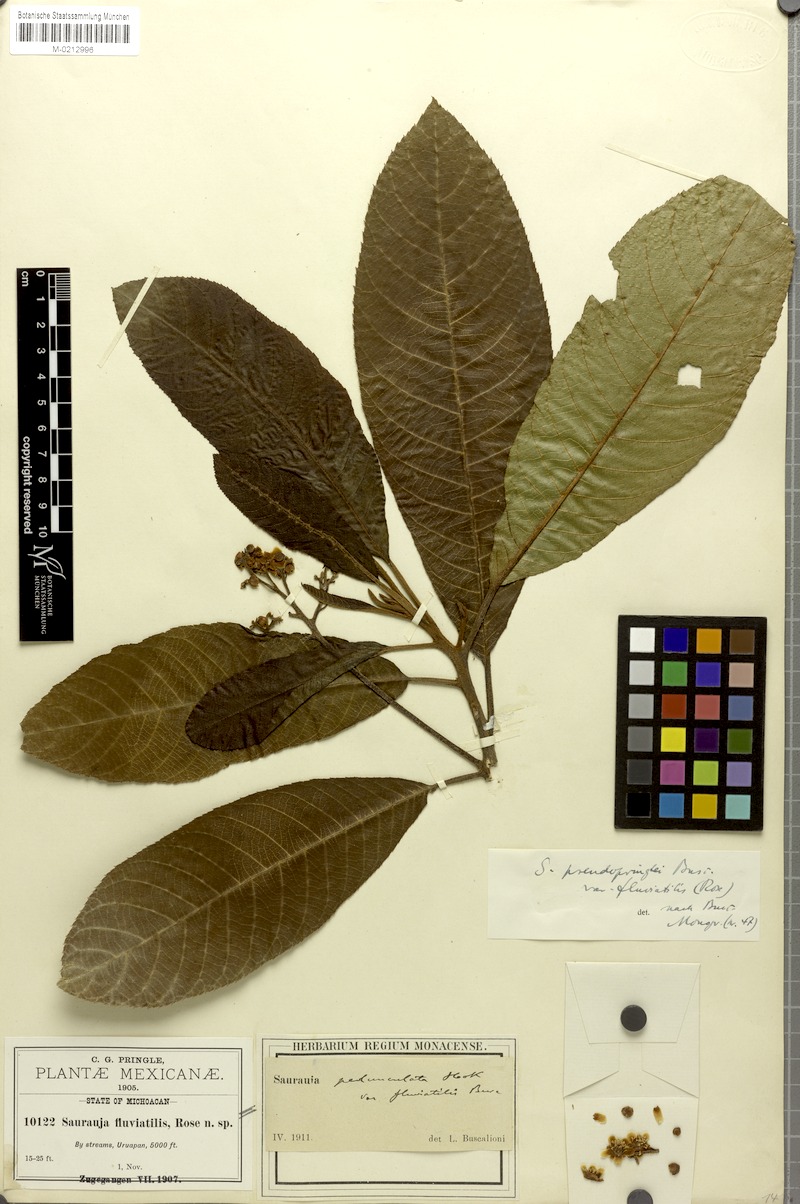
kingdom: Plantae
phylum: Tracheophyta
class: Magnoliopsida
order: Ericales
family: Actinidiaceae
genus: Saurauia
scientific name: Saurauia serrata
